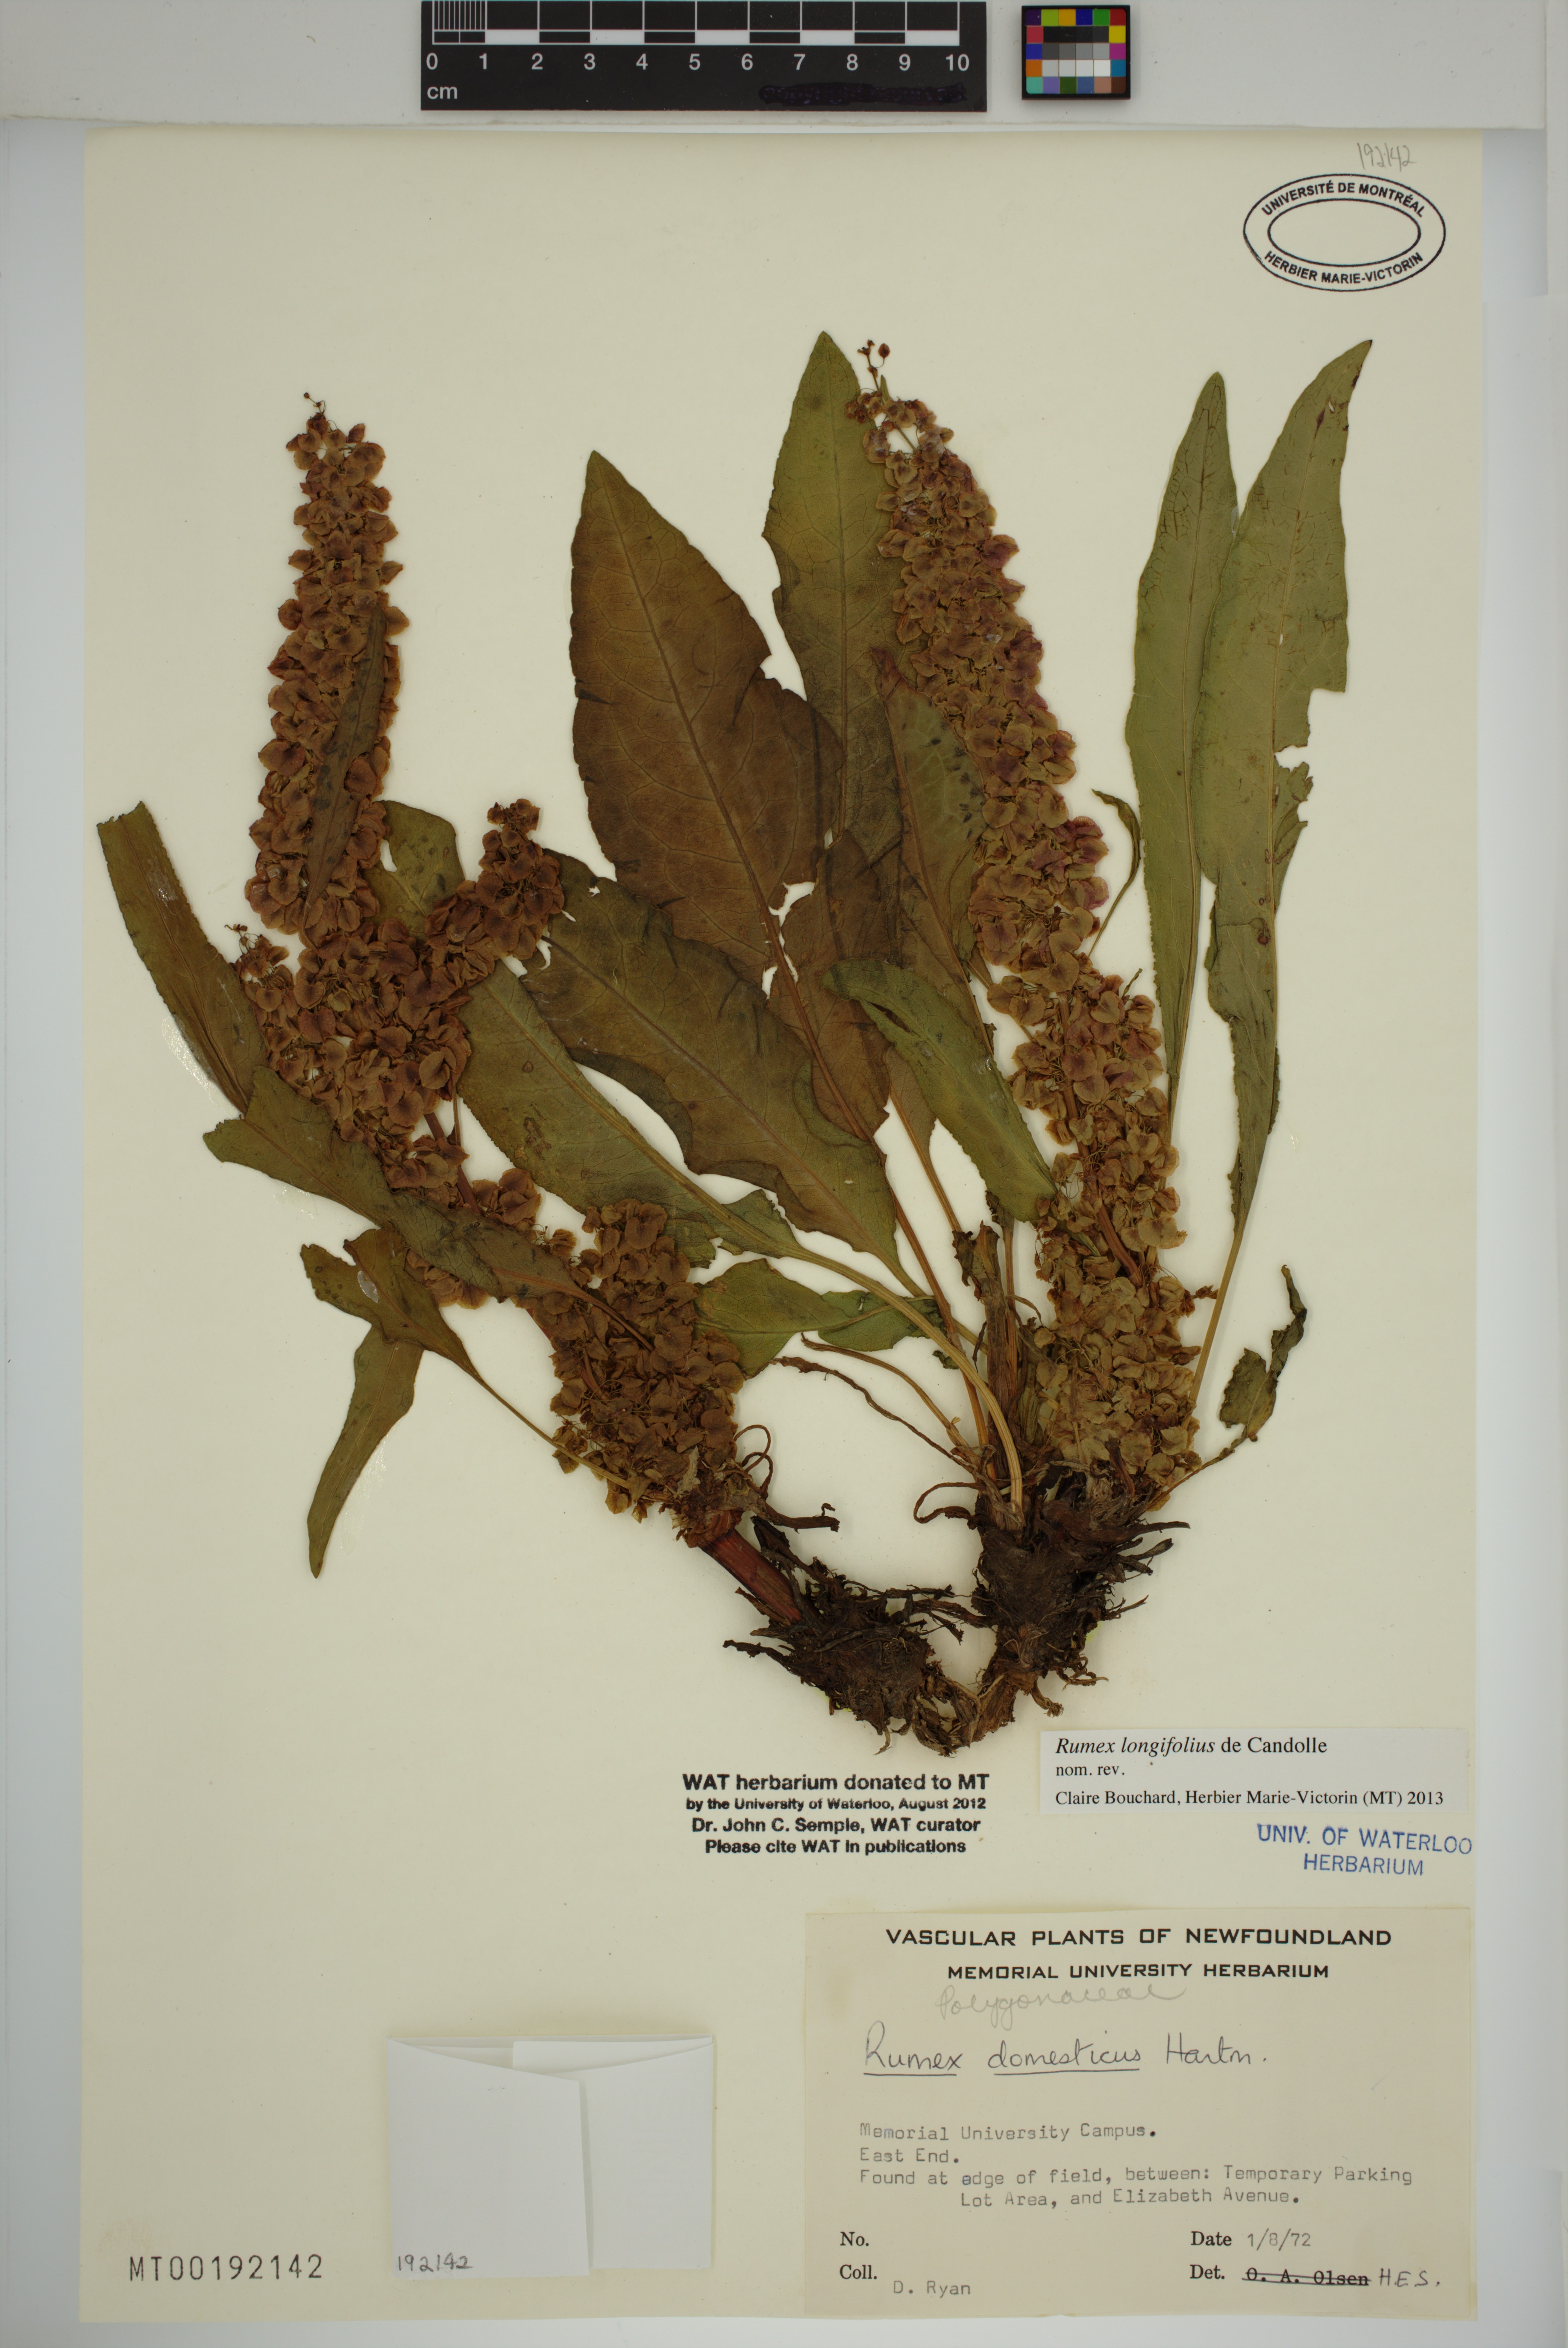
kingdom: Plantae
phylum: Tracheophyta
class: Magnoliopsida
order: Caryophyllales
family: Polygonaceae
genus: Rumex
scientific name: Rumex longifolius
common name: Dooryard dock
